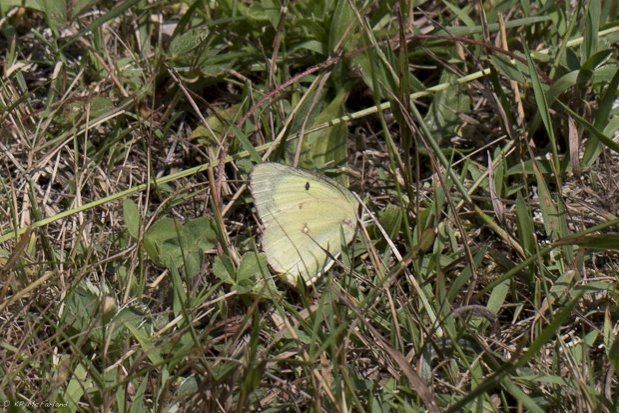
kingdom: Animalia
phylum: Arthropoda
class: Insecta
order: Lepidoptera
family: Pieridae
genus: Colias
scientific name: Colias philodice
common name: Clouded Sulphur
